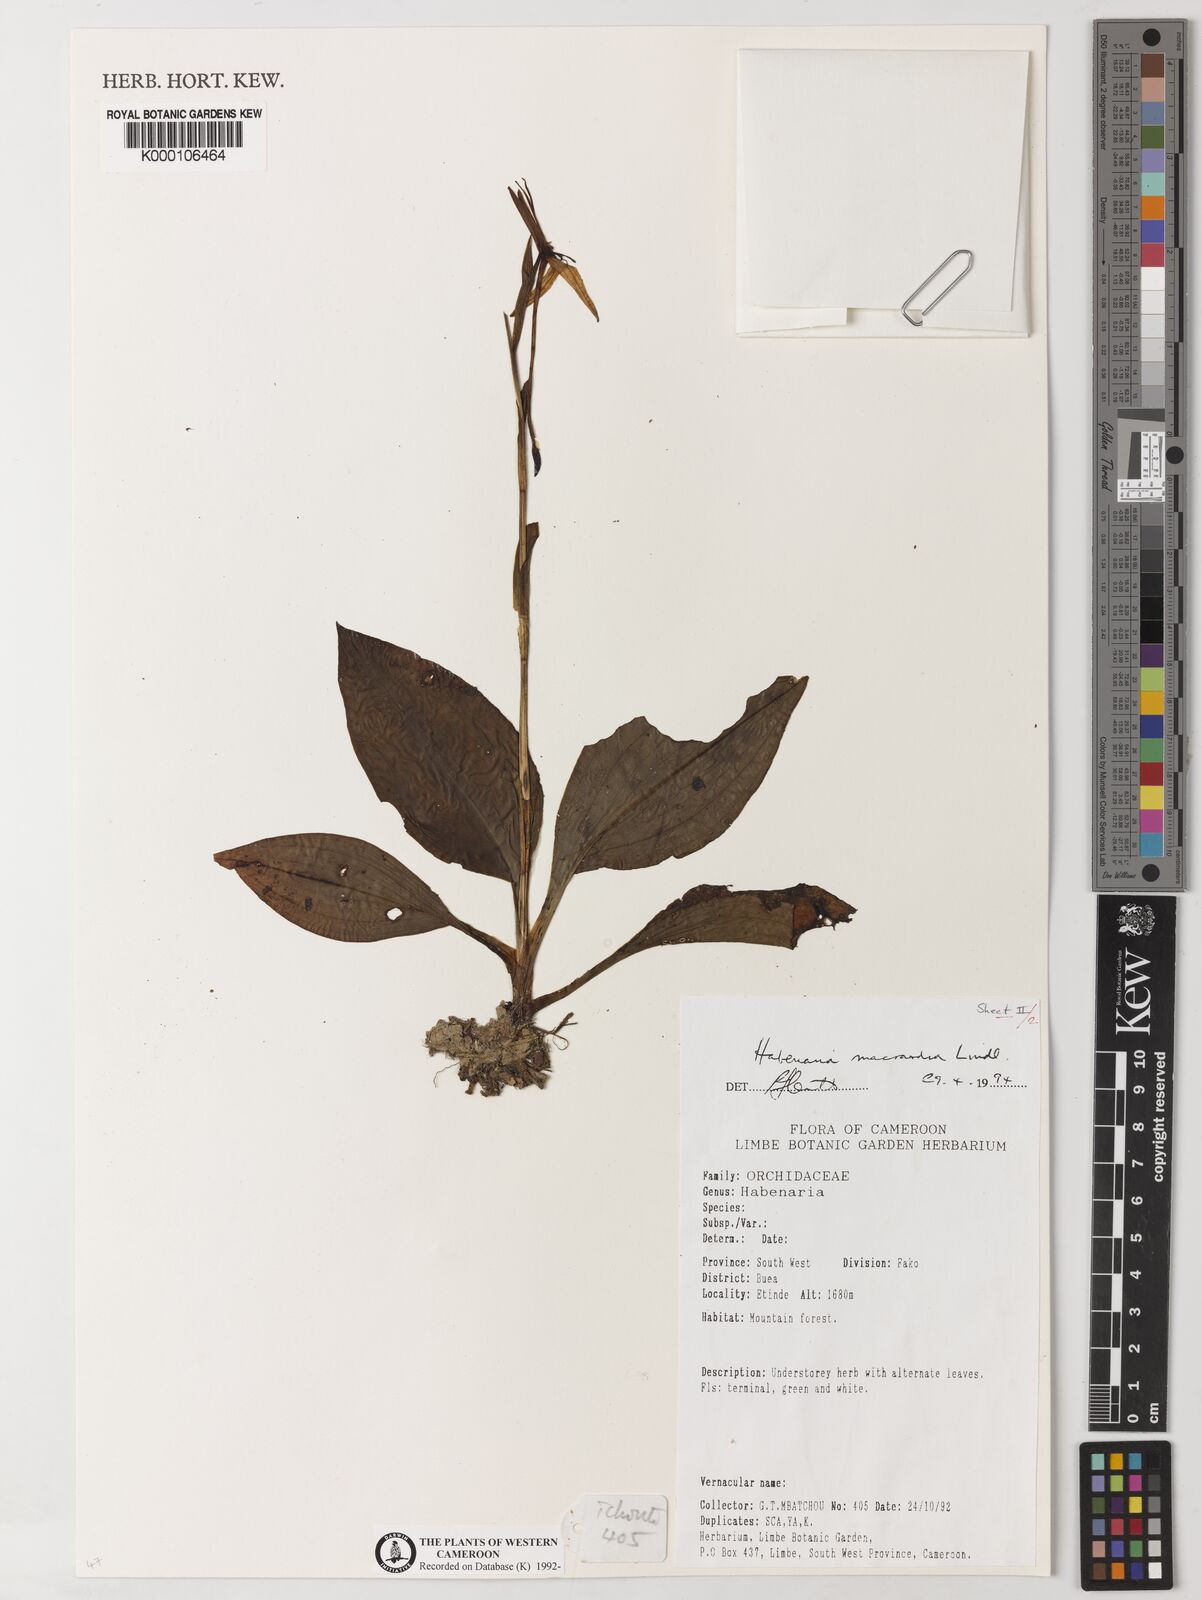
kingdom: Plantae
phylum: Tracheophyta
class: Liliopsida
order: Asparagales
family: Orchidaceae
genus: Habenaria
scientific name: Habenaria macrandra
